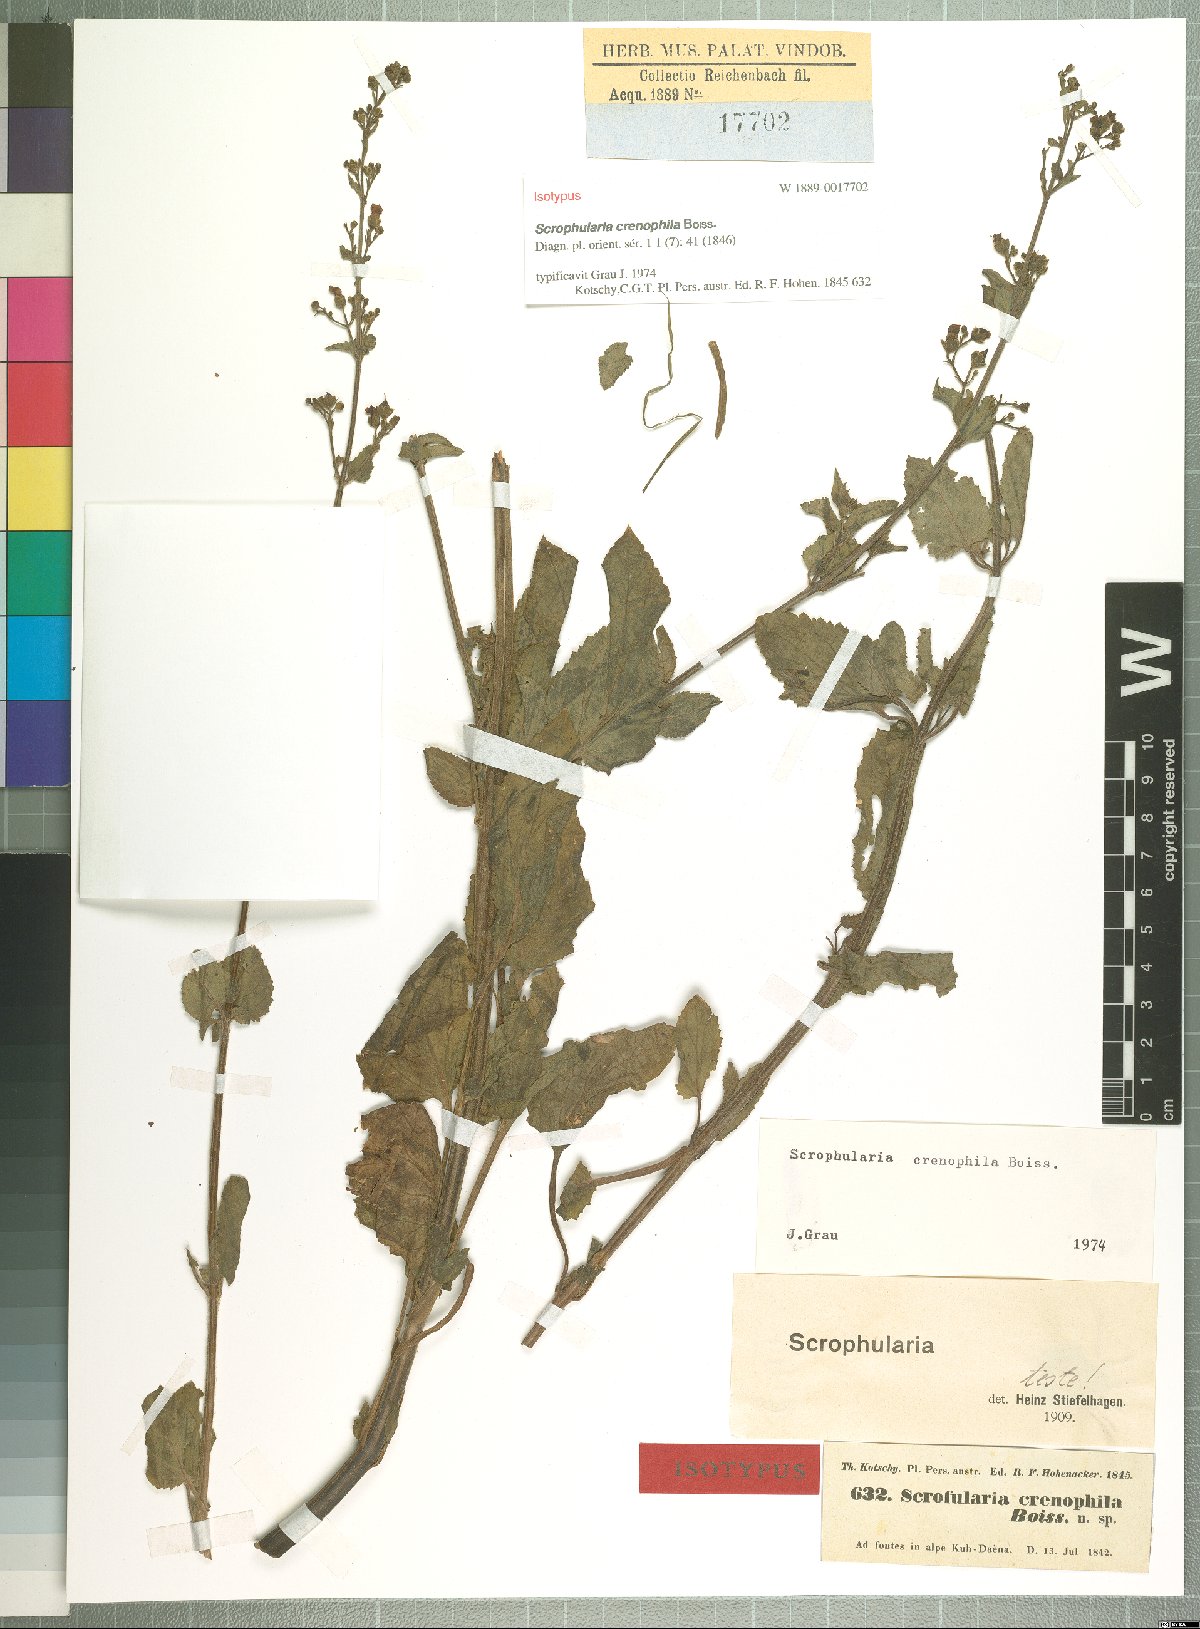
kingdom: Plantae
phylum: Tracheophyta
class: Magnoliopsida
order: Lamiales
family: Scrophulariaceae
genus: Scrophularia
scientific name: Scrophularia crenophila
